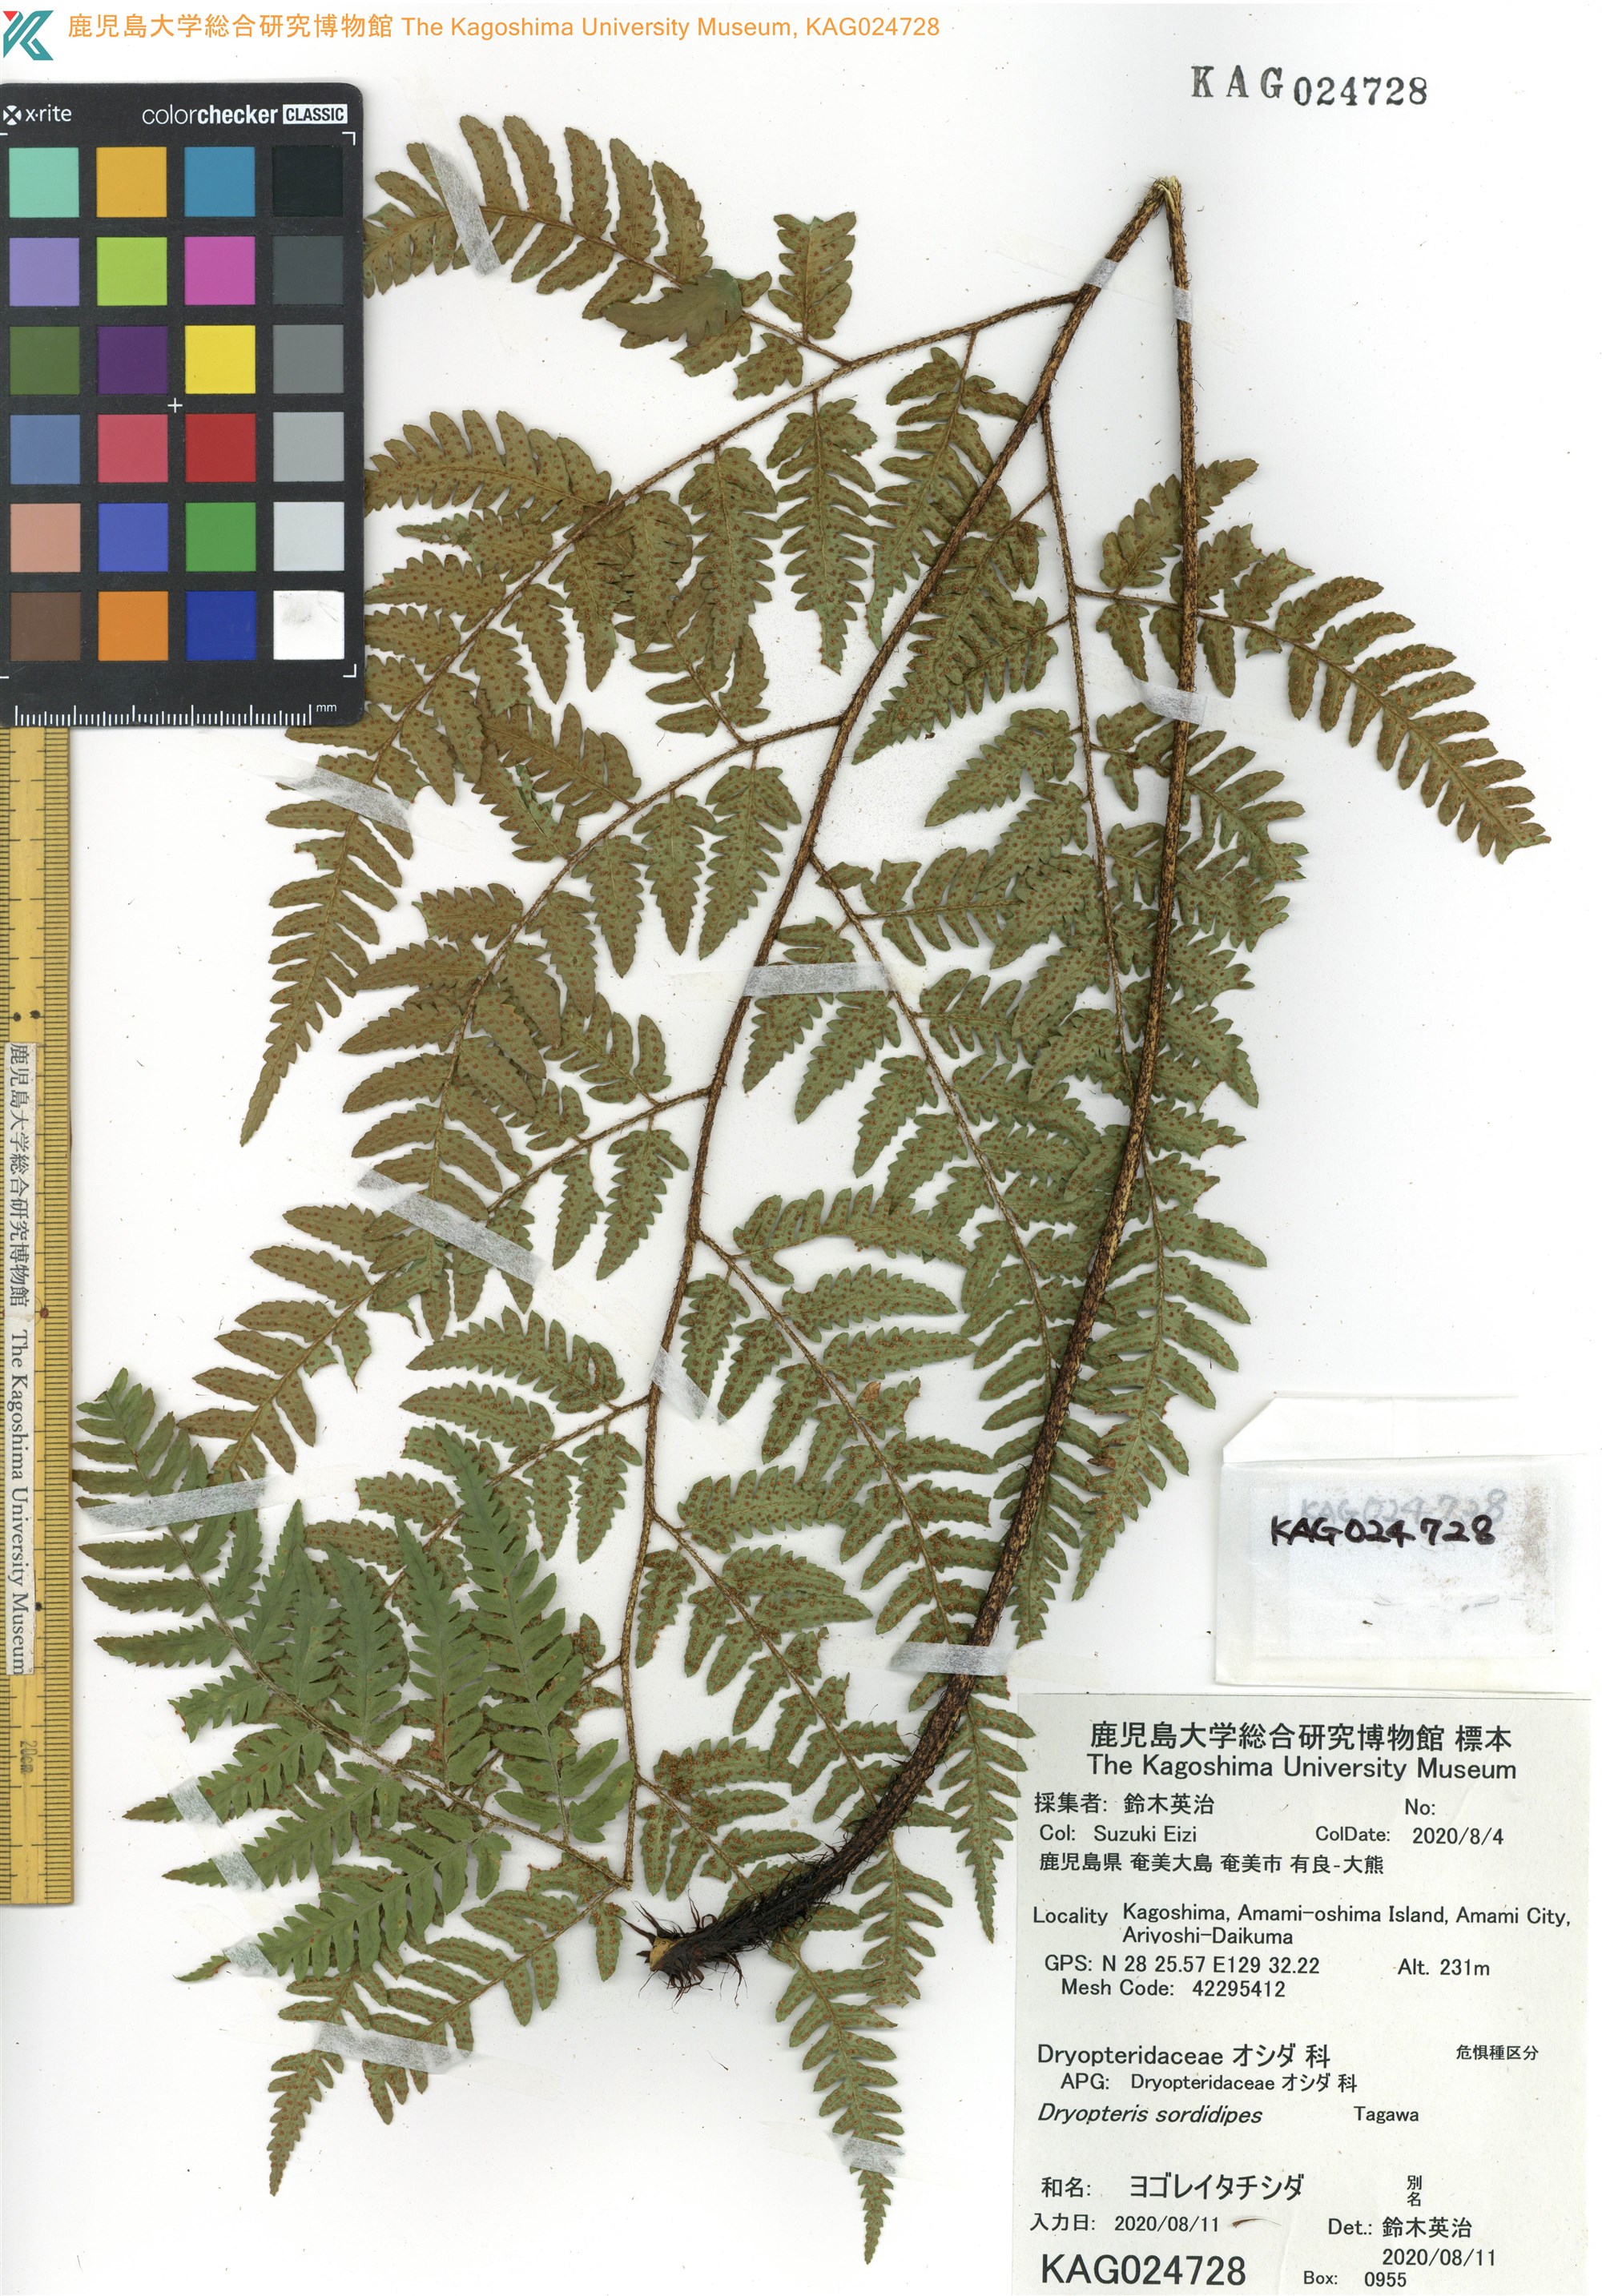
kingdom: Plantae
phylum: Tracheophyta
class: Polypodiopsida
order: Polypodiales
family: Dryopteridaceae
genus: Dryopteris
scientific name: Dryopteris sordidipes
